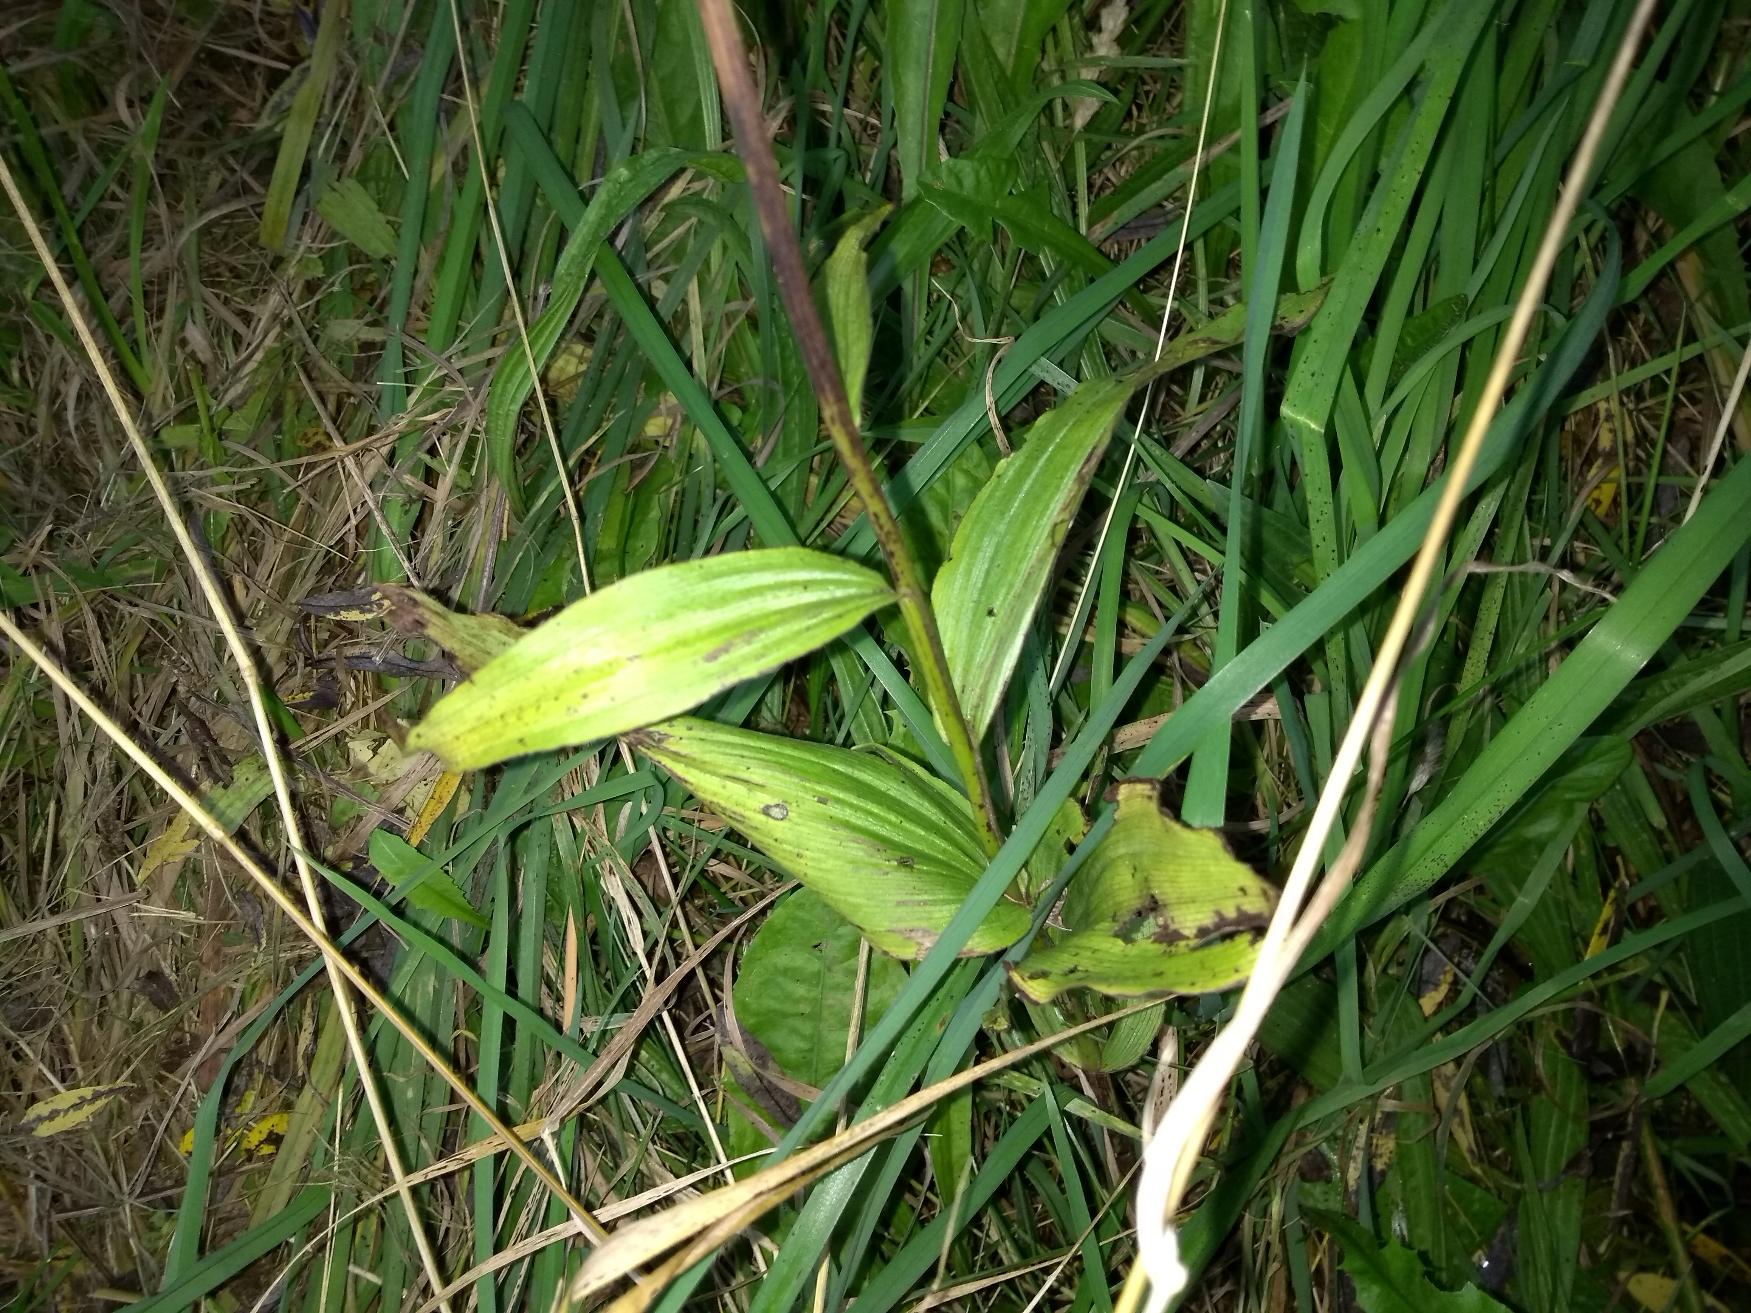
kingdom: Plantae
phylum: Tracheophyta
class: Liliopsida
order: Asparagales
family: Orchidaceae
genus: Epipactis
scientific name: Epipactis helleborine
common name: Skov-hullæbe
